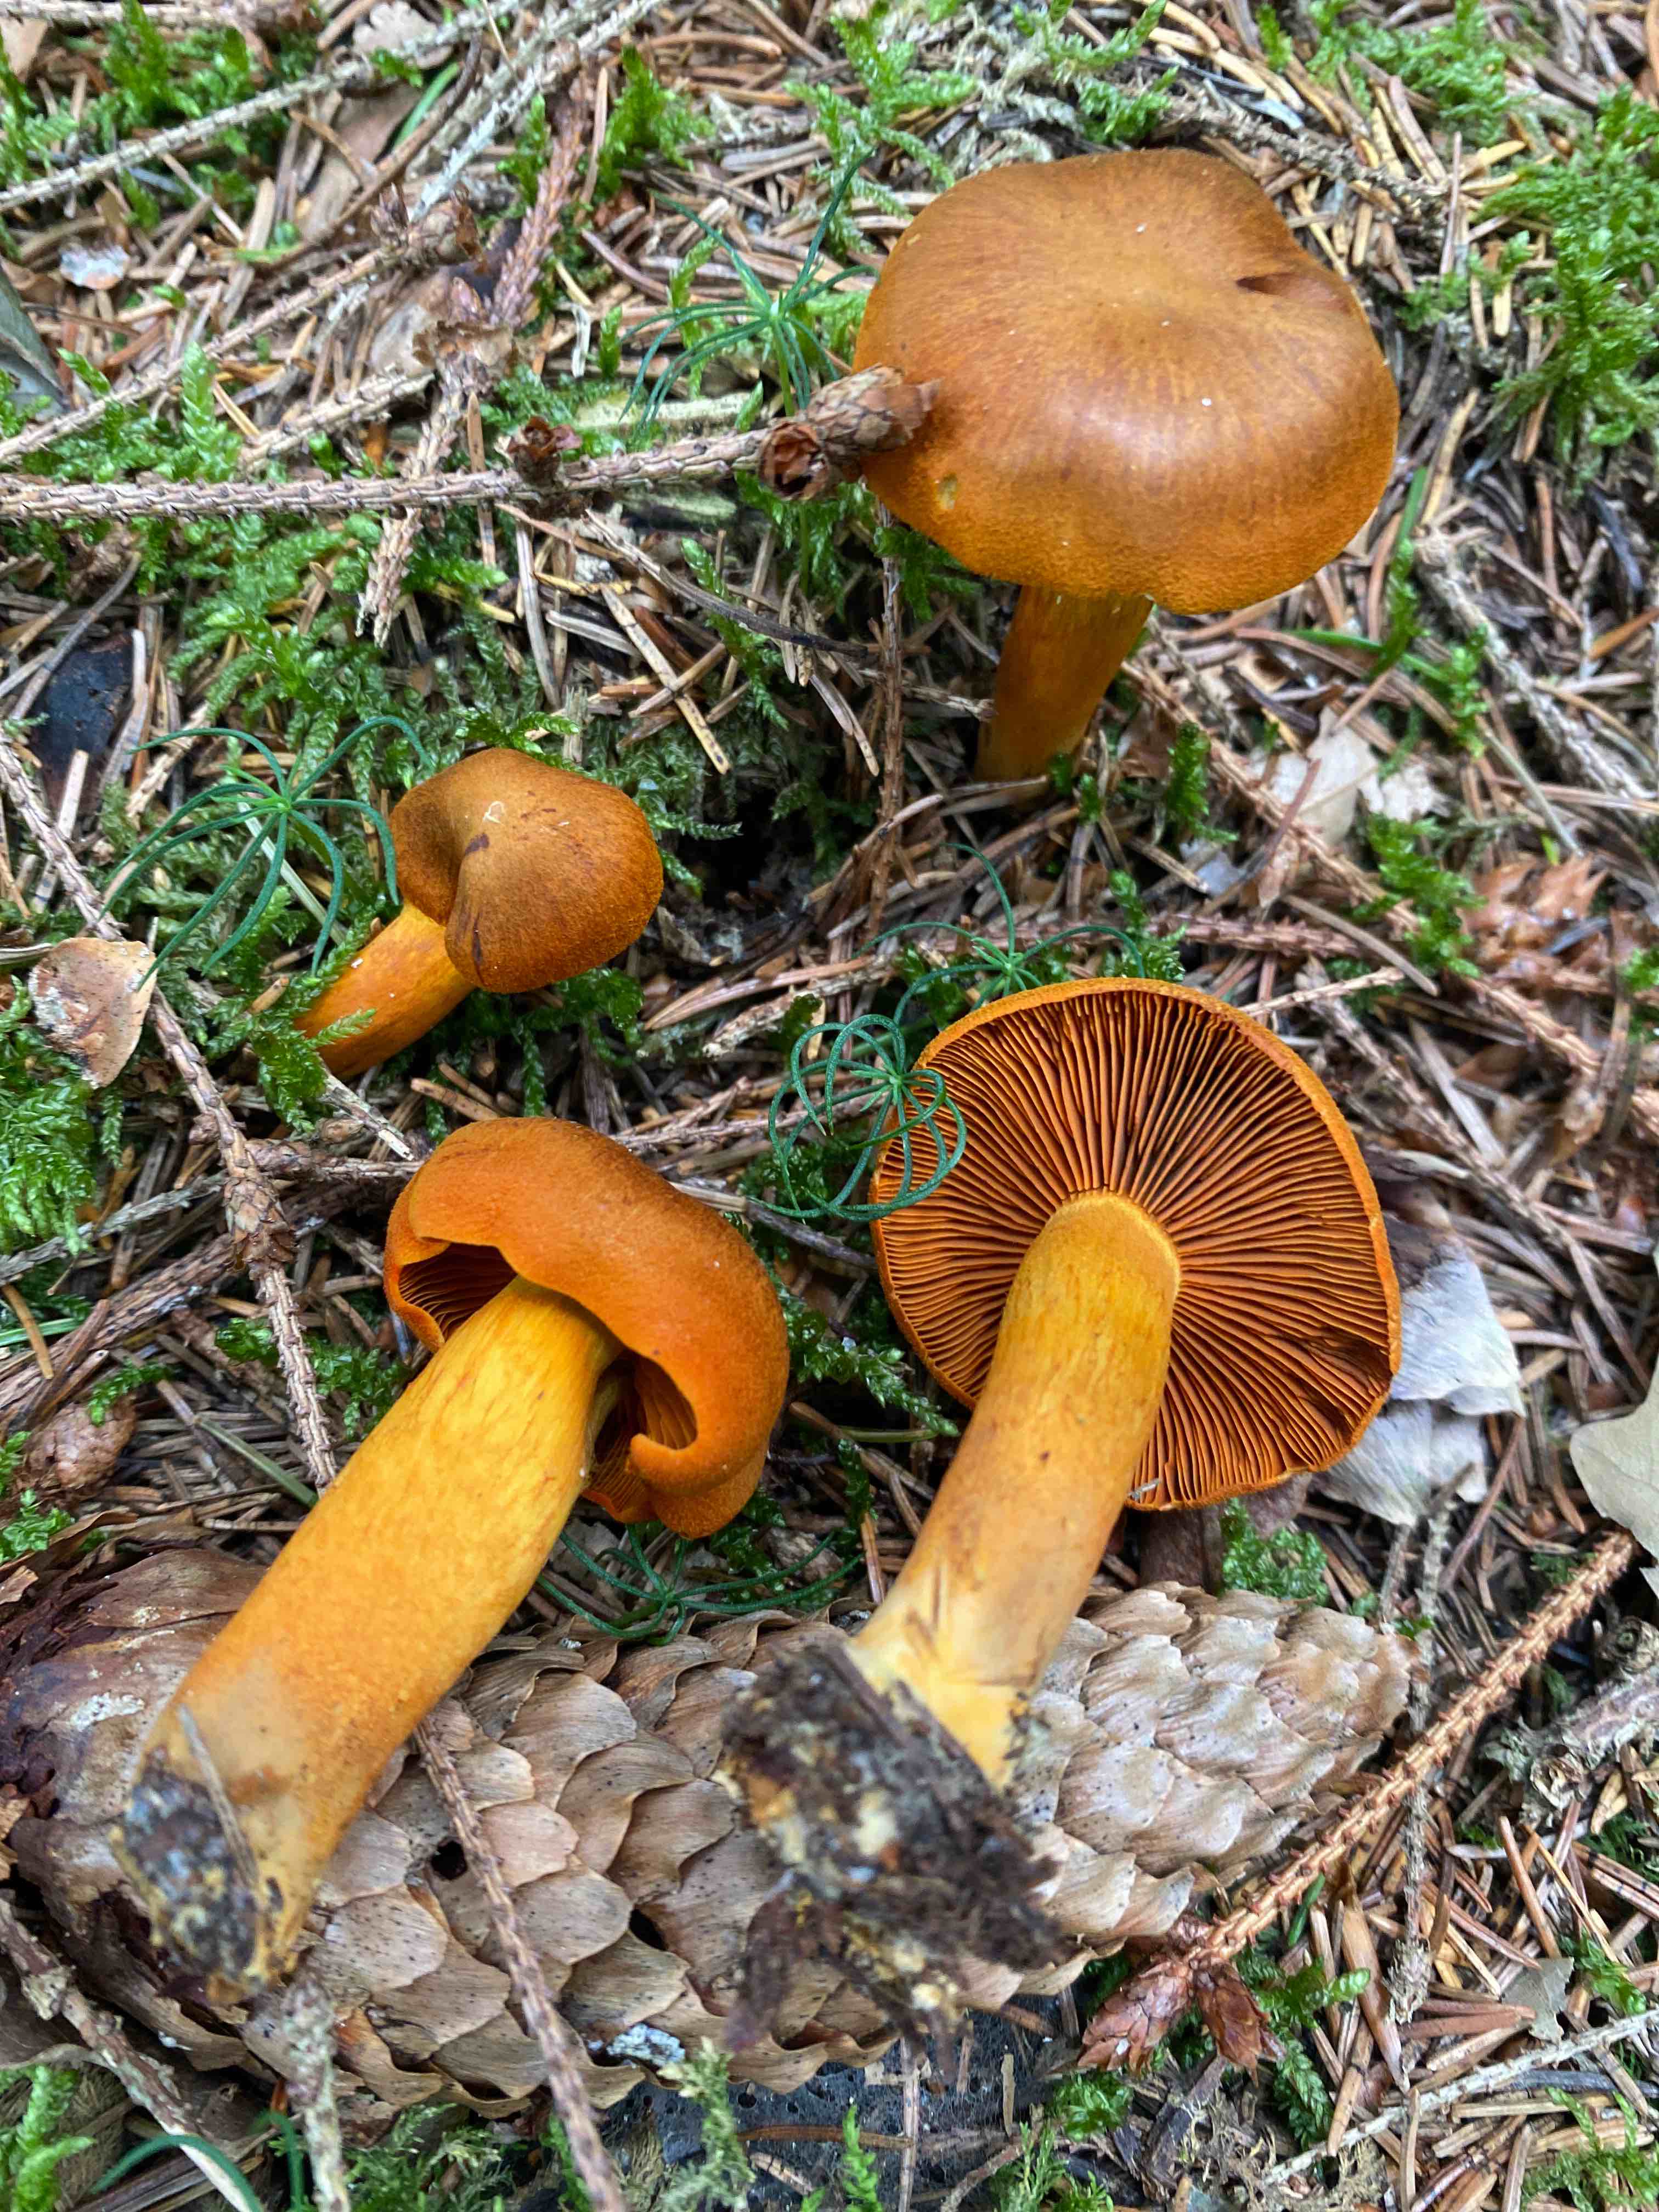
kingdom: Fungi
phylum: Basidiomycota
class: Agaricomycetes
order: Agaricales
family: Cortinariaceae
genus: Cortinarius
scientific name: Cortinarius malicorius
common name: grønkødet slørhat
